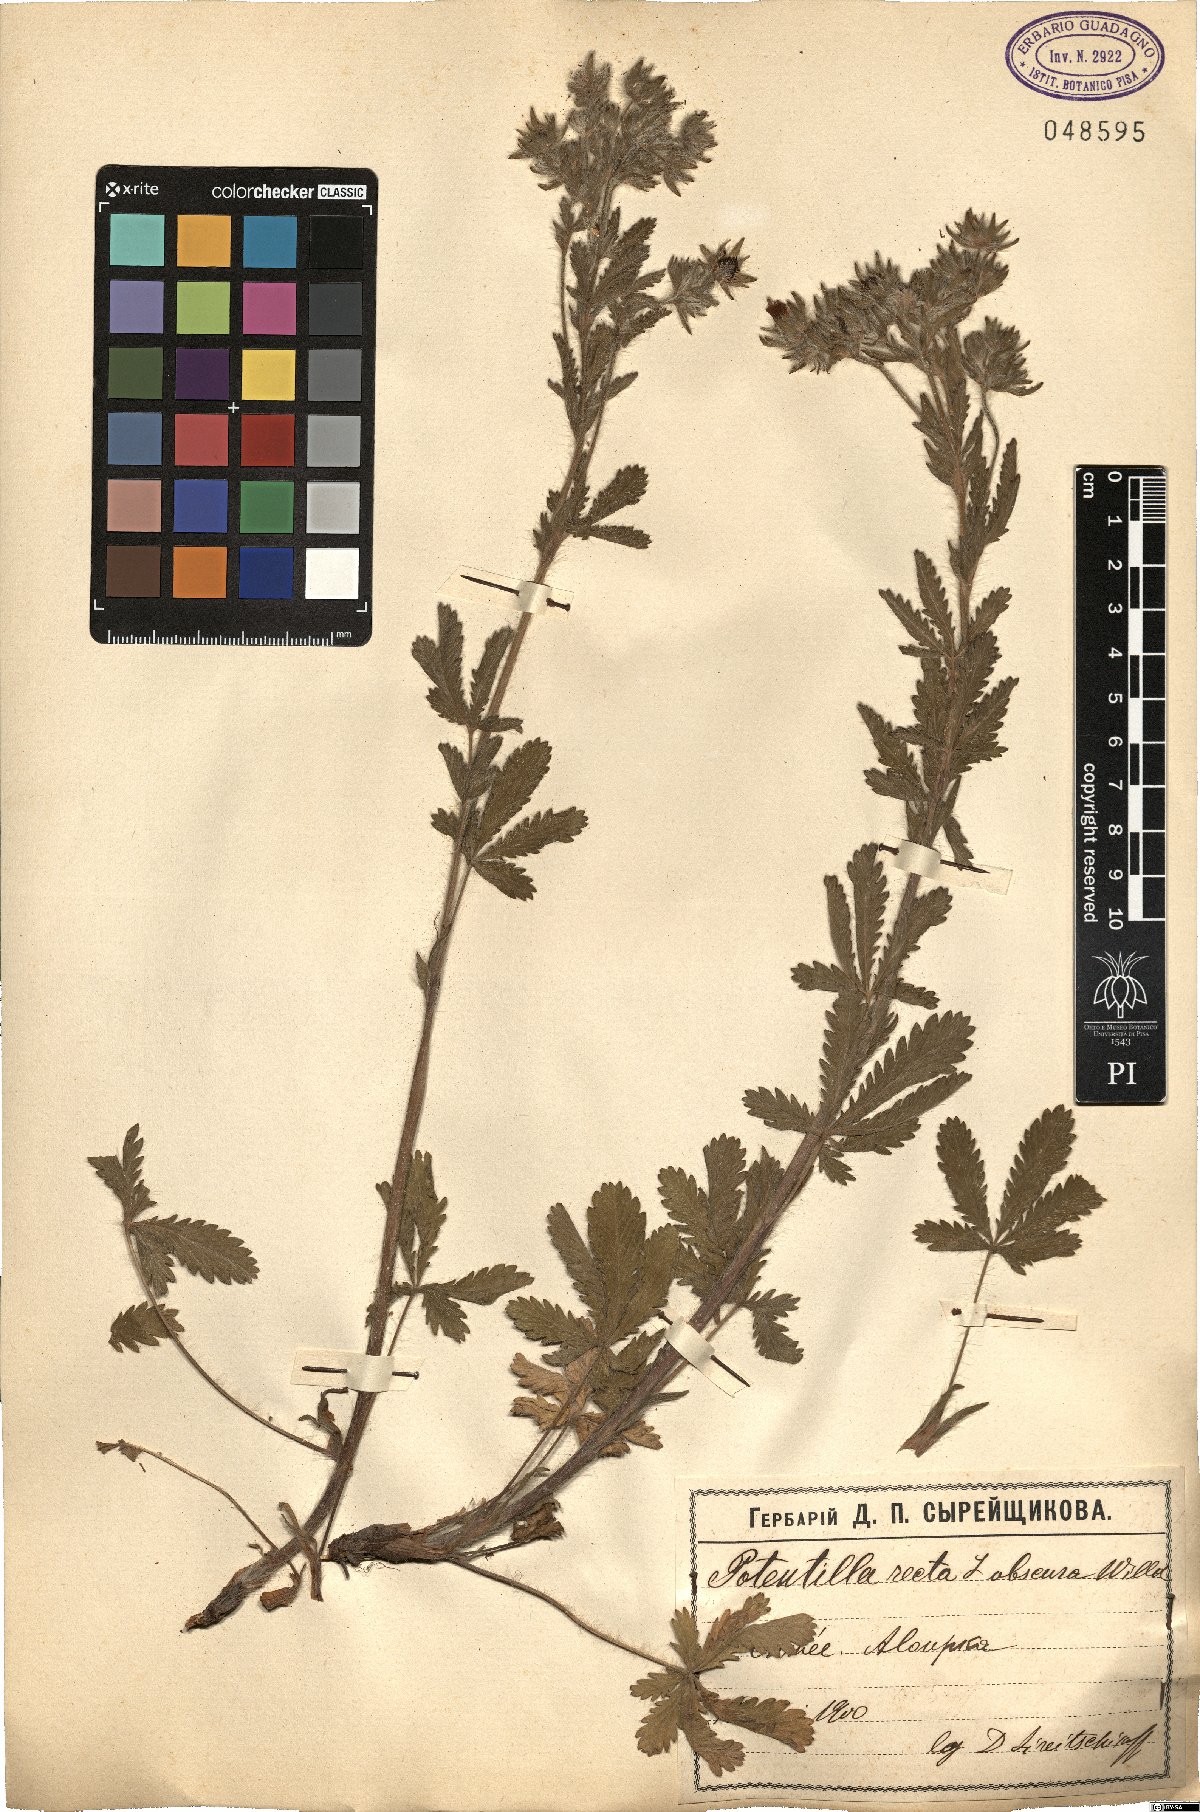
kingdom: Plantae
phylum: Tracheophyta
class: Magnoliopsida
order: Rosales
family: Rosaceae
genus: Potentilla
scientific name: Potentilla recta
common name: Sulphur cinquefoil
